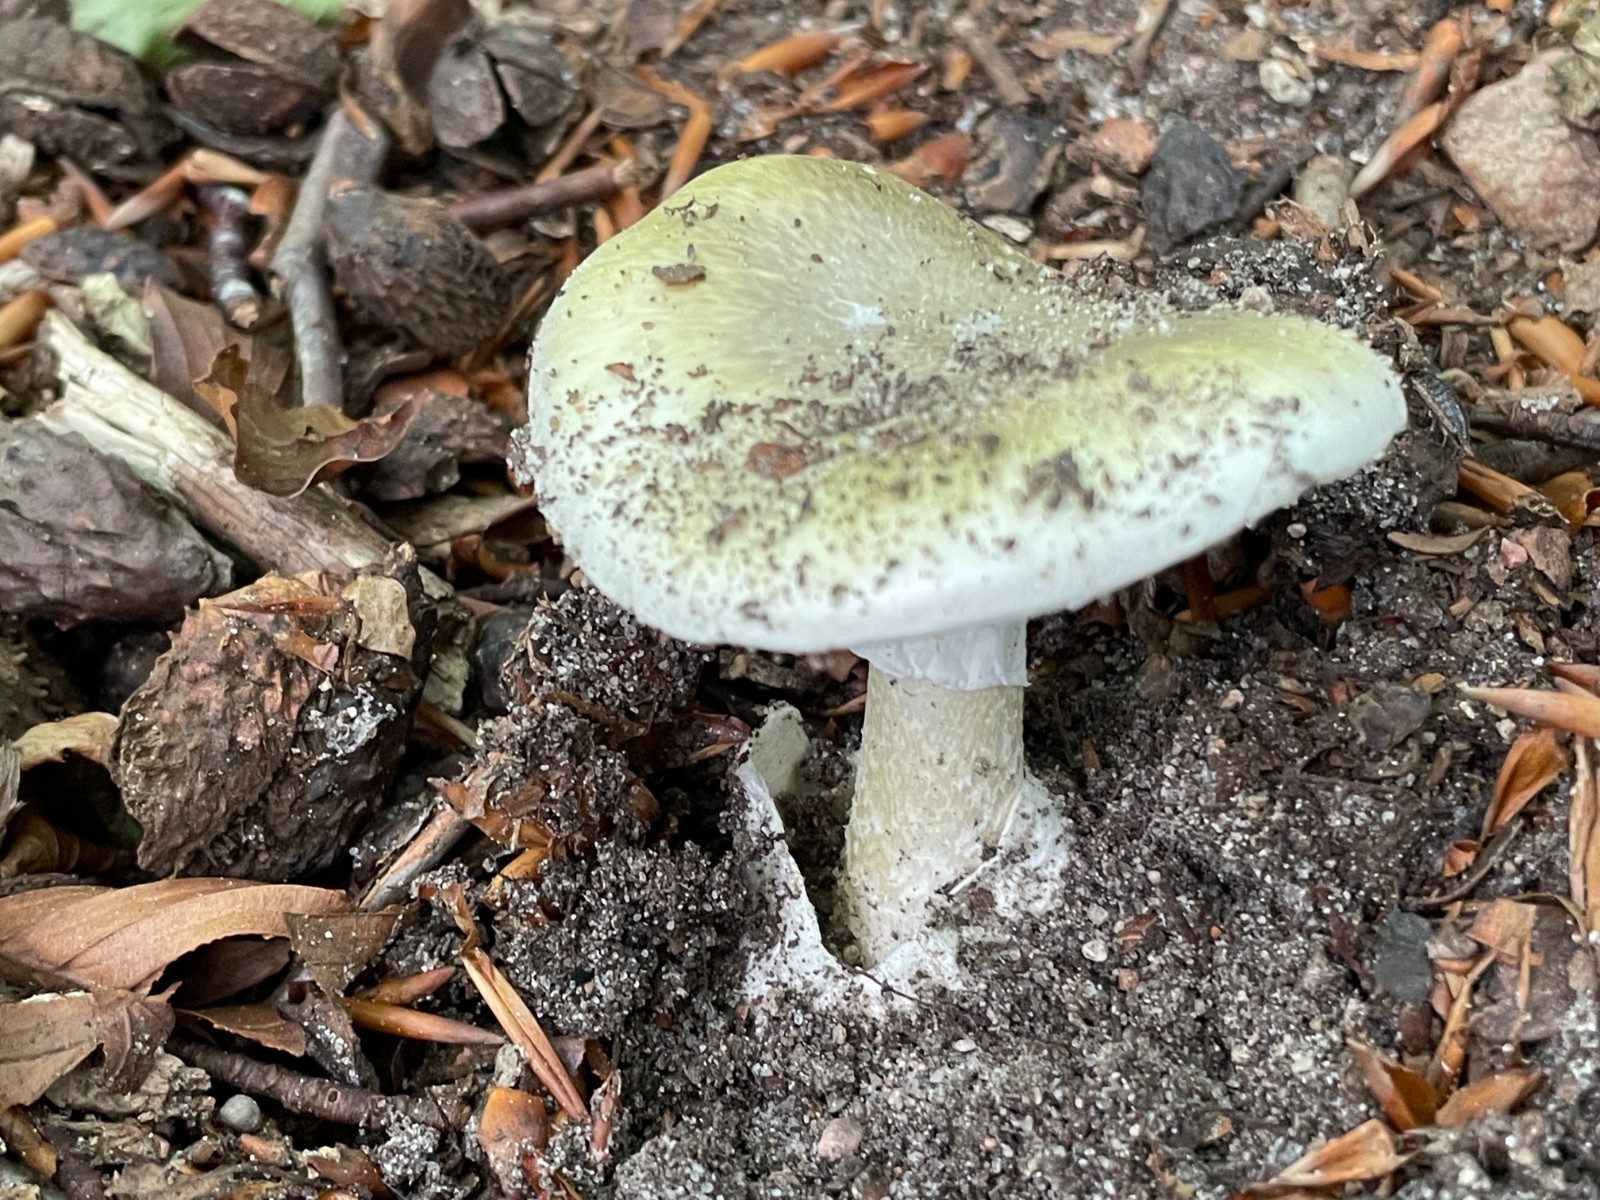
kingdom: Fungi
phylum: Basidiomycota
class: Agaricomycetes
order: Agaricales
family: Amanitaceae
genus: Amanita
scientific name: Amanita phalloides
